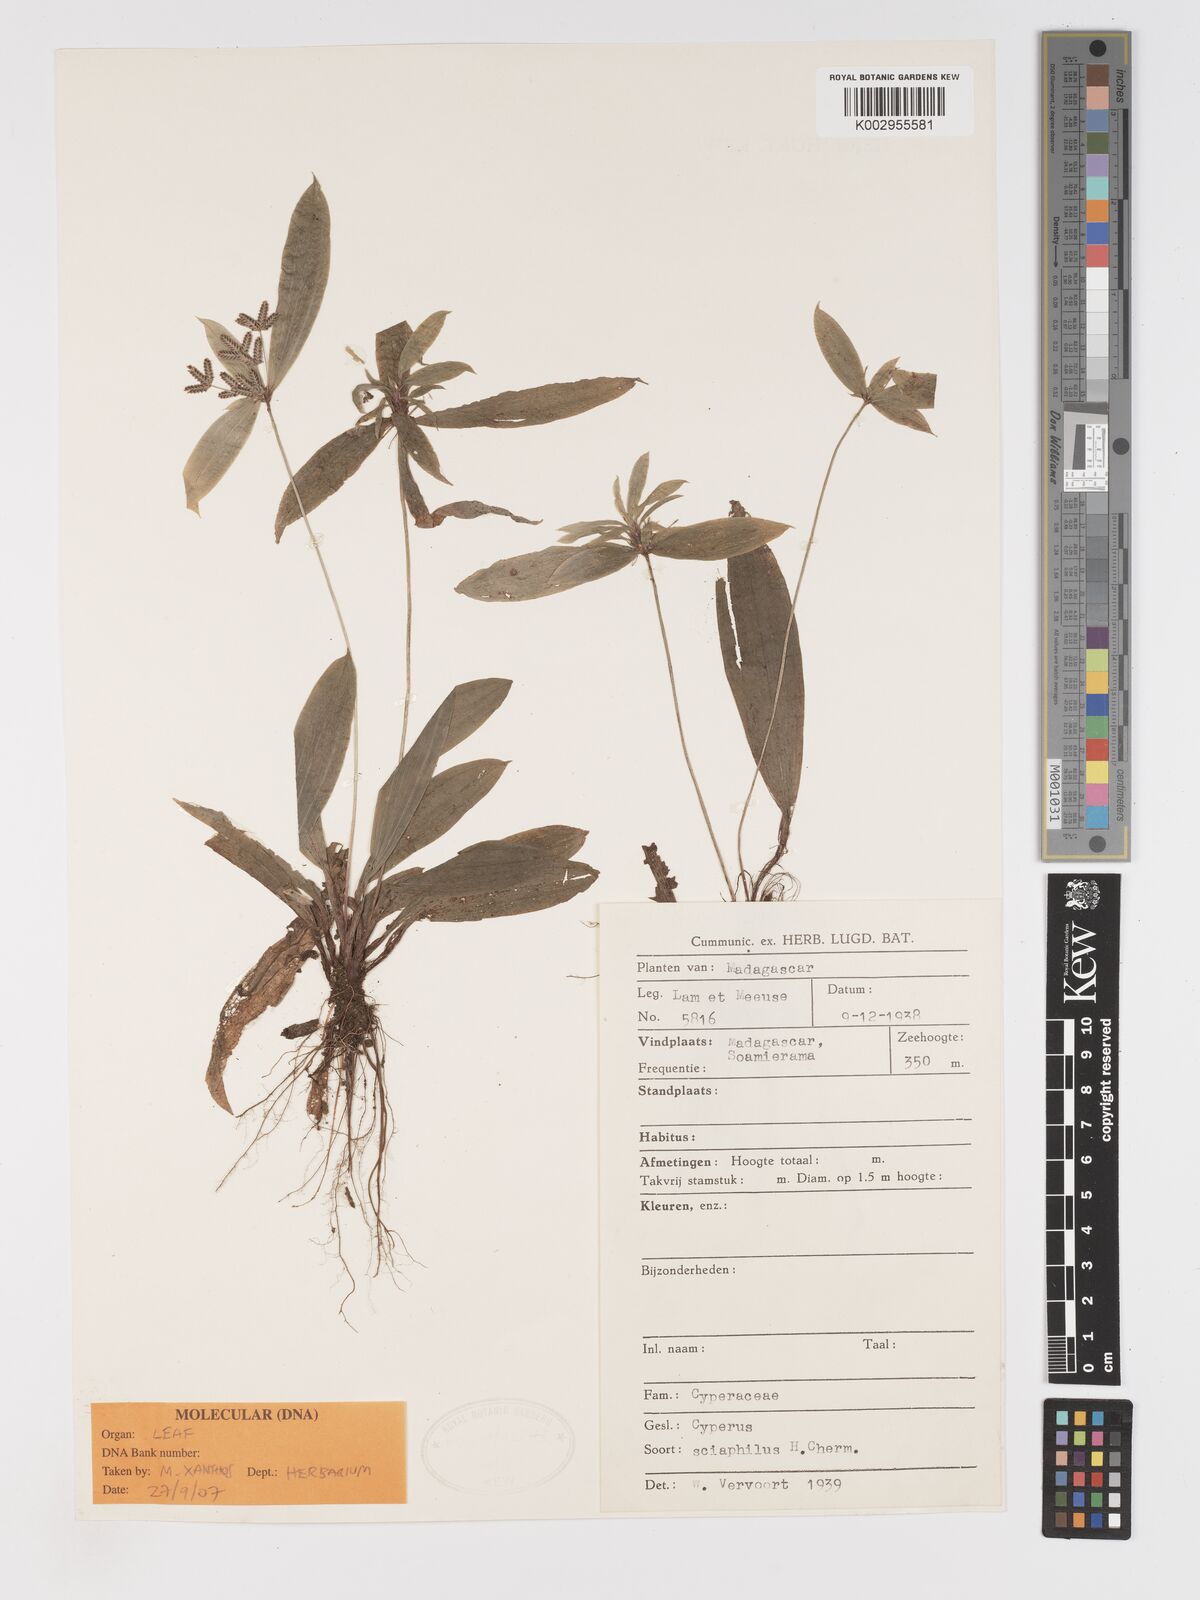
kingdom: Plantae
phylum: Tracheophyta
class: Liliopsida
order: Poales
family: Cyperaceae
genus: Cyperus
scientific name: Cyperus sciaphilus
